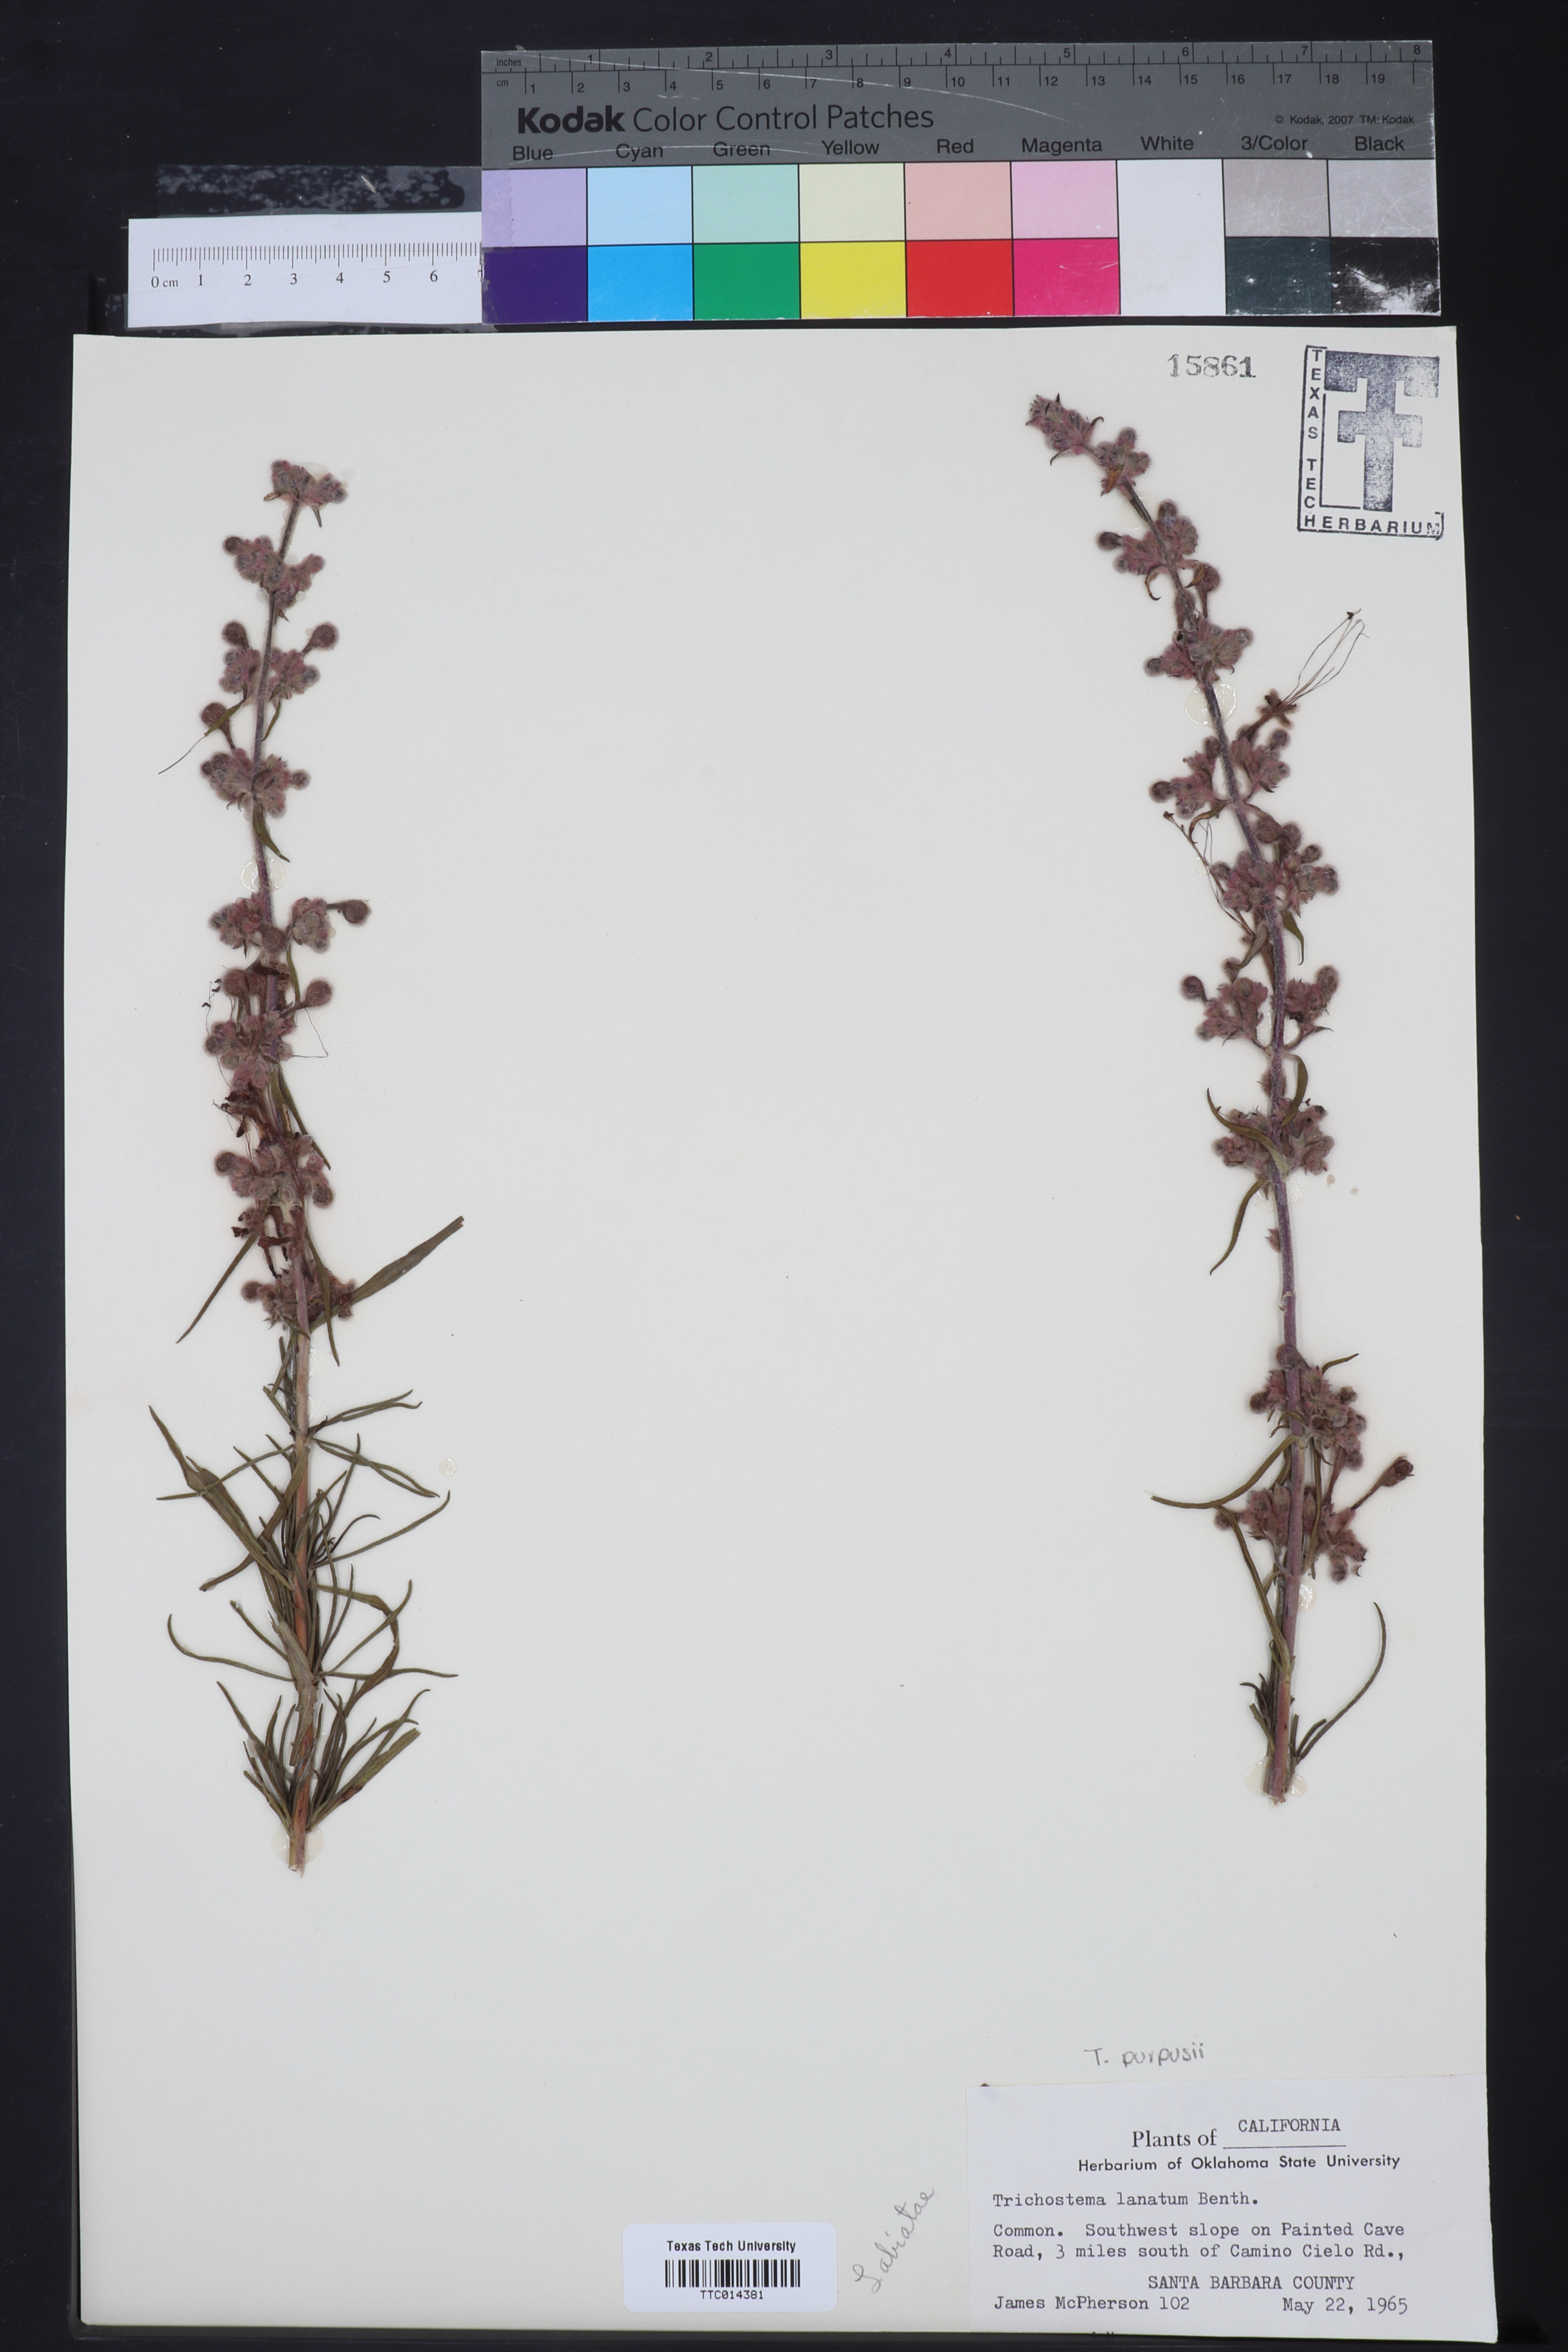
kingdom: Plantae
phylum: Tracheophyta
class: Magnoliopsida
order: Lamiales
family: Lamiaceae
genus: Trichostema
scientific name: Trichostema lanatum
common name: Woolly bluecurls
